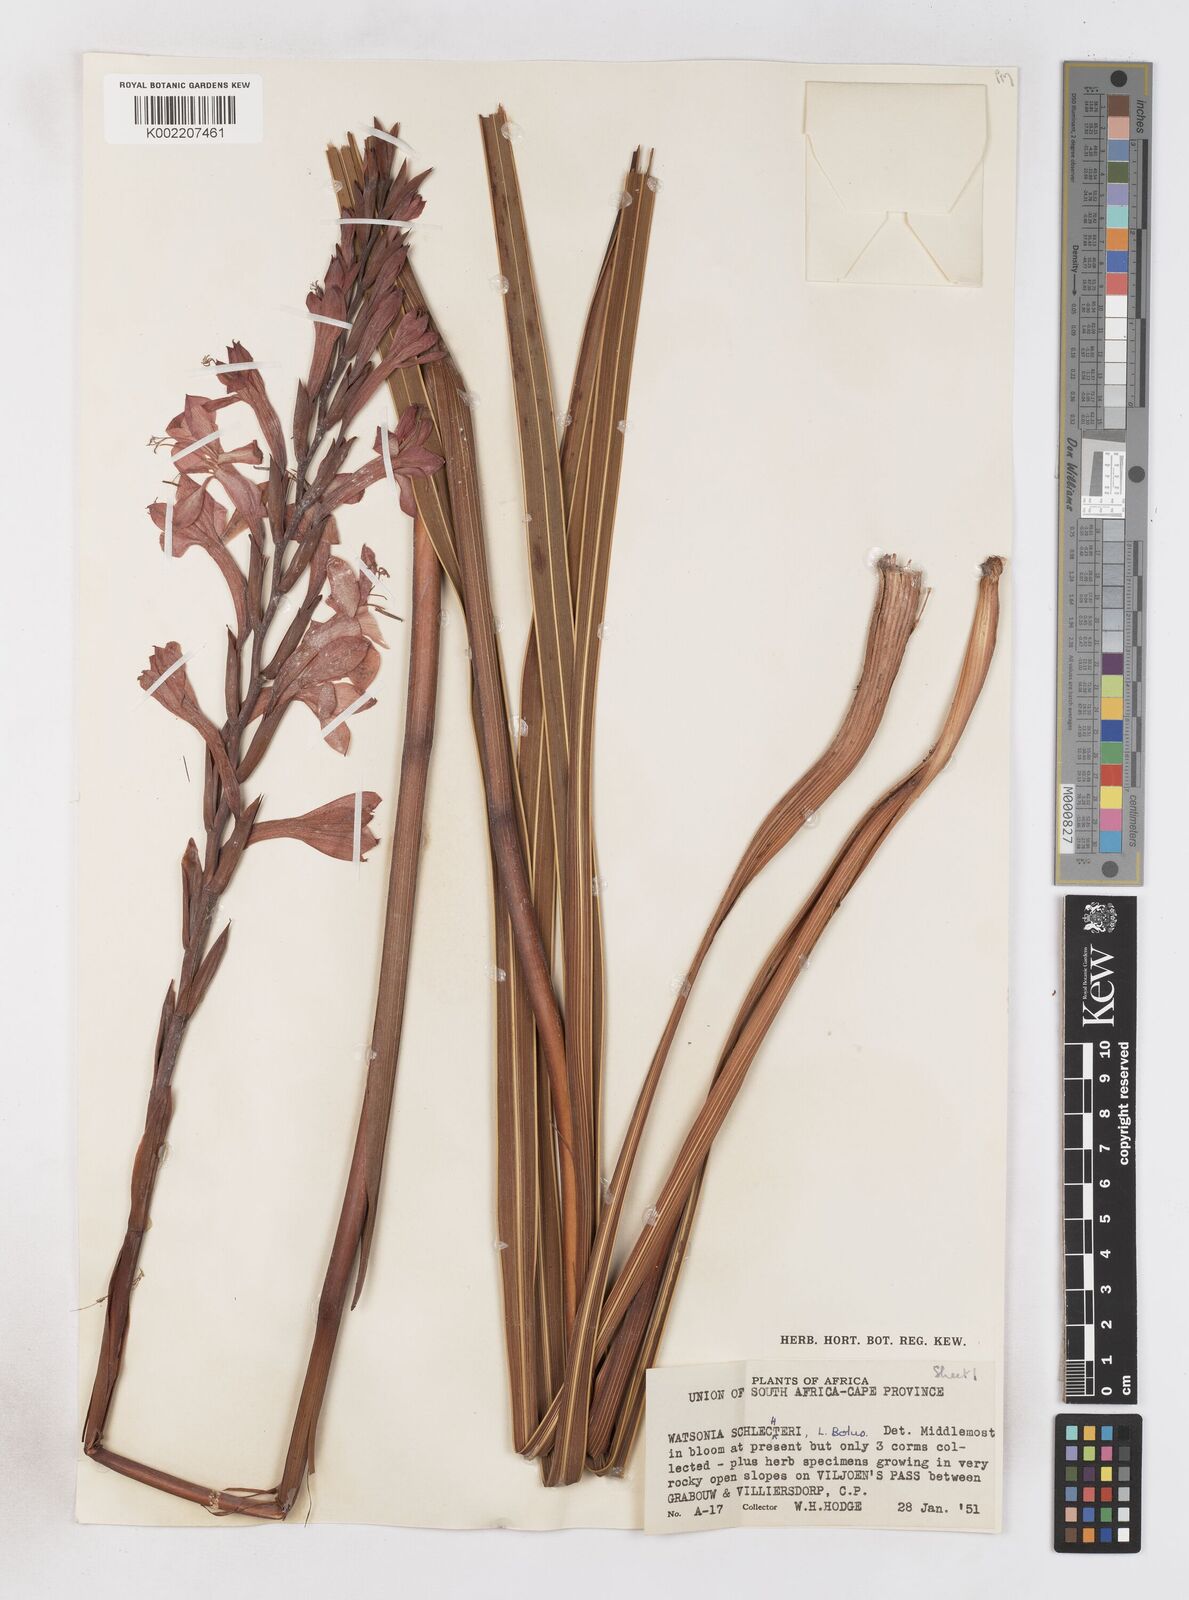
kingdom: Plantae
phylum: Tracheophyta
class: Liliopsida
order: Asparagales
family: Iridaceae
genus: Watsonia
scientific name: Watsonia schlechteri
